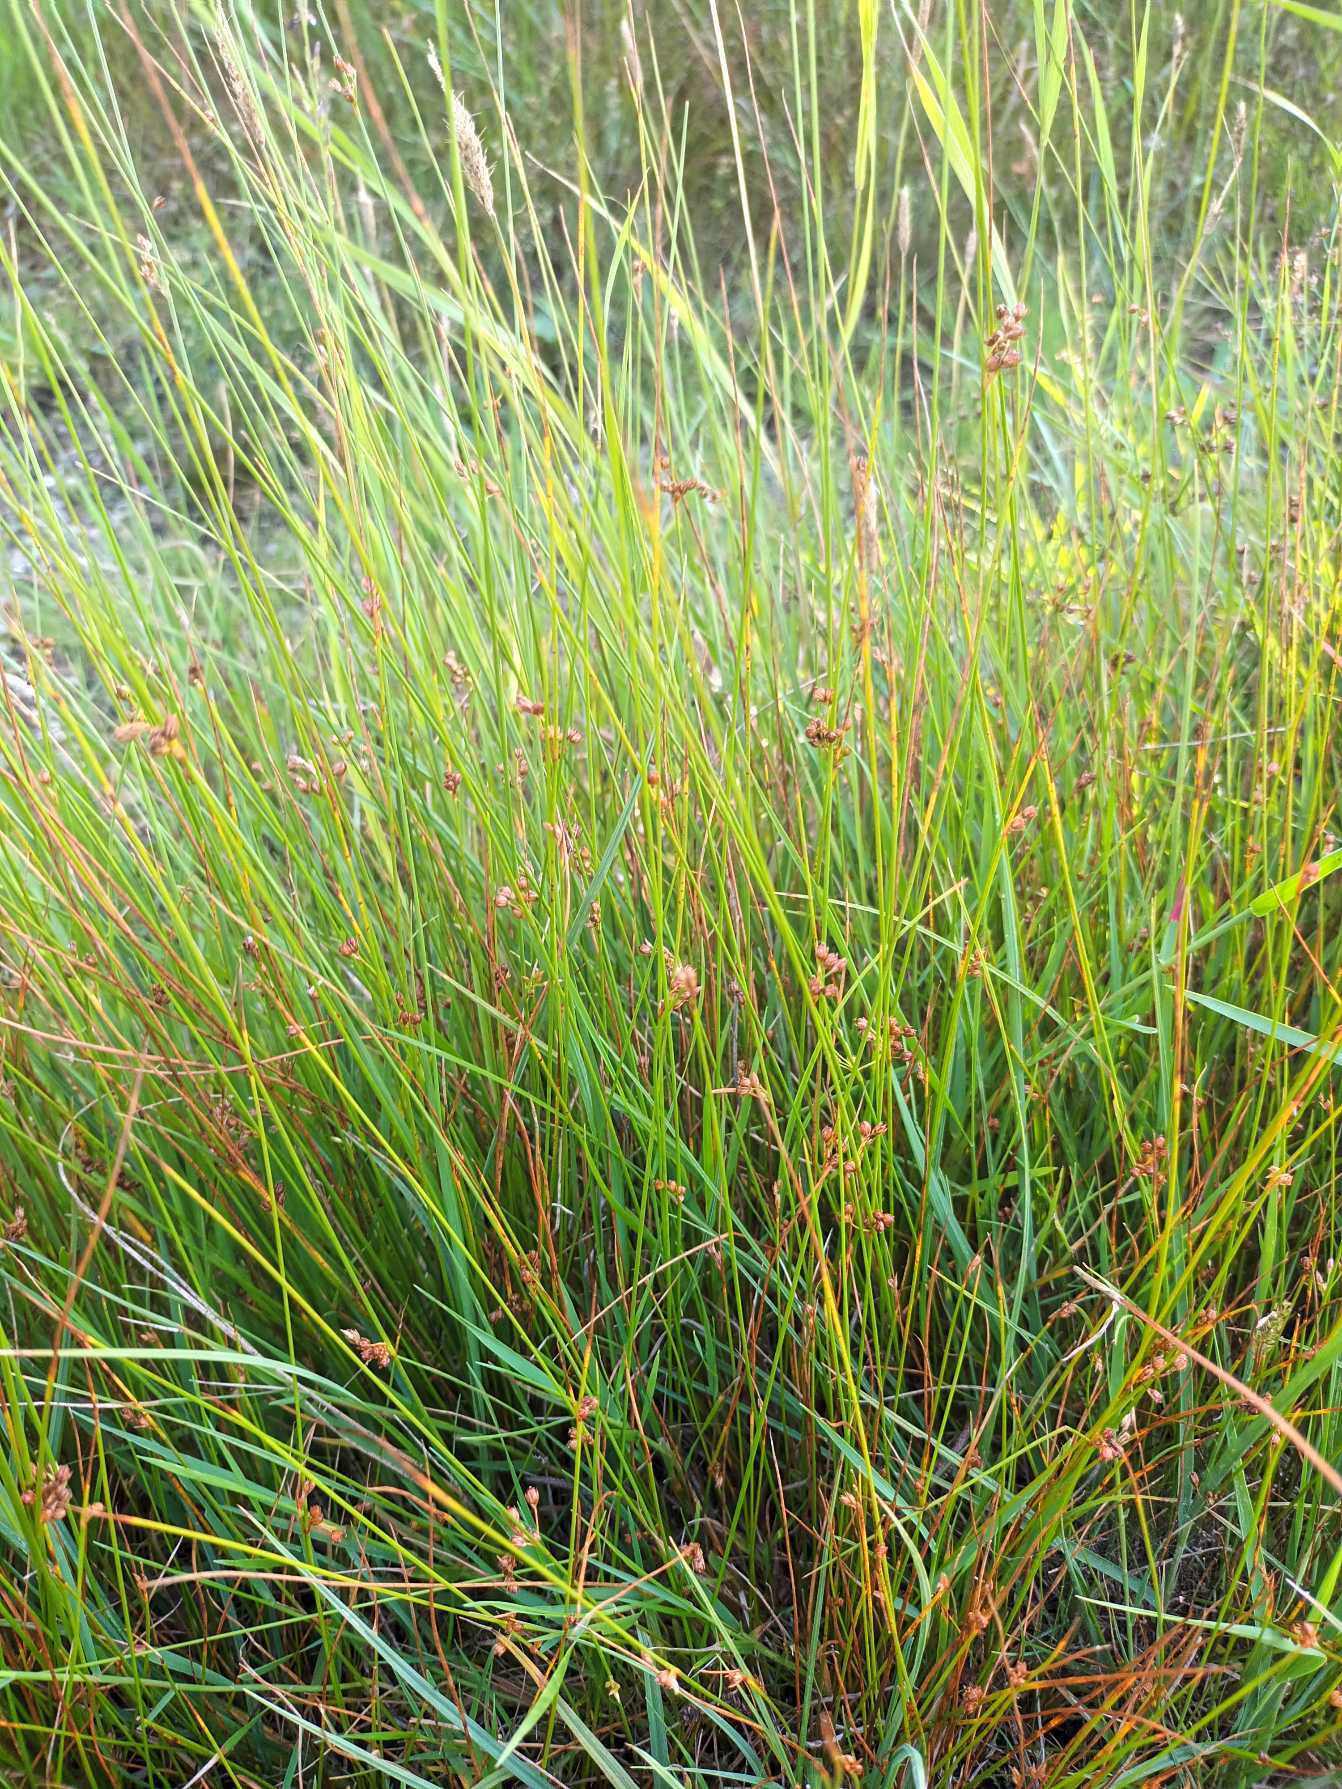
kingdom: Plantae
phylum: Tracheophyta
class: Liliopsida
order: Poales
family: Juncaceae
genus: Juncus
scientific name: Juncus filiformis
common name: Tråd-siv
